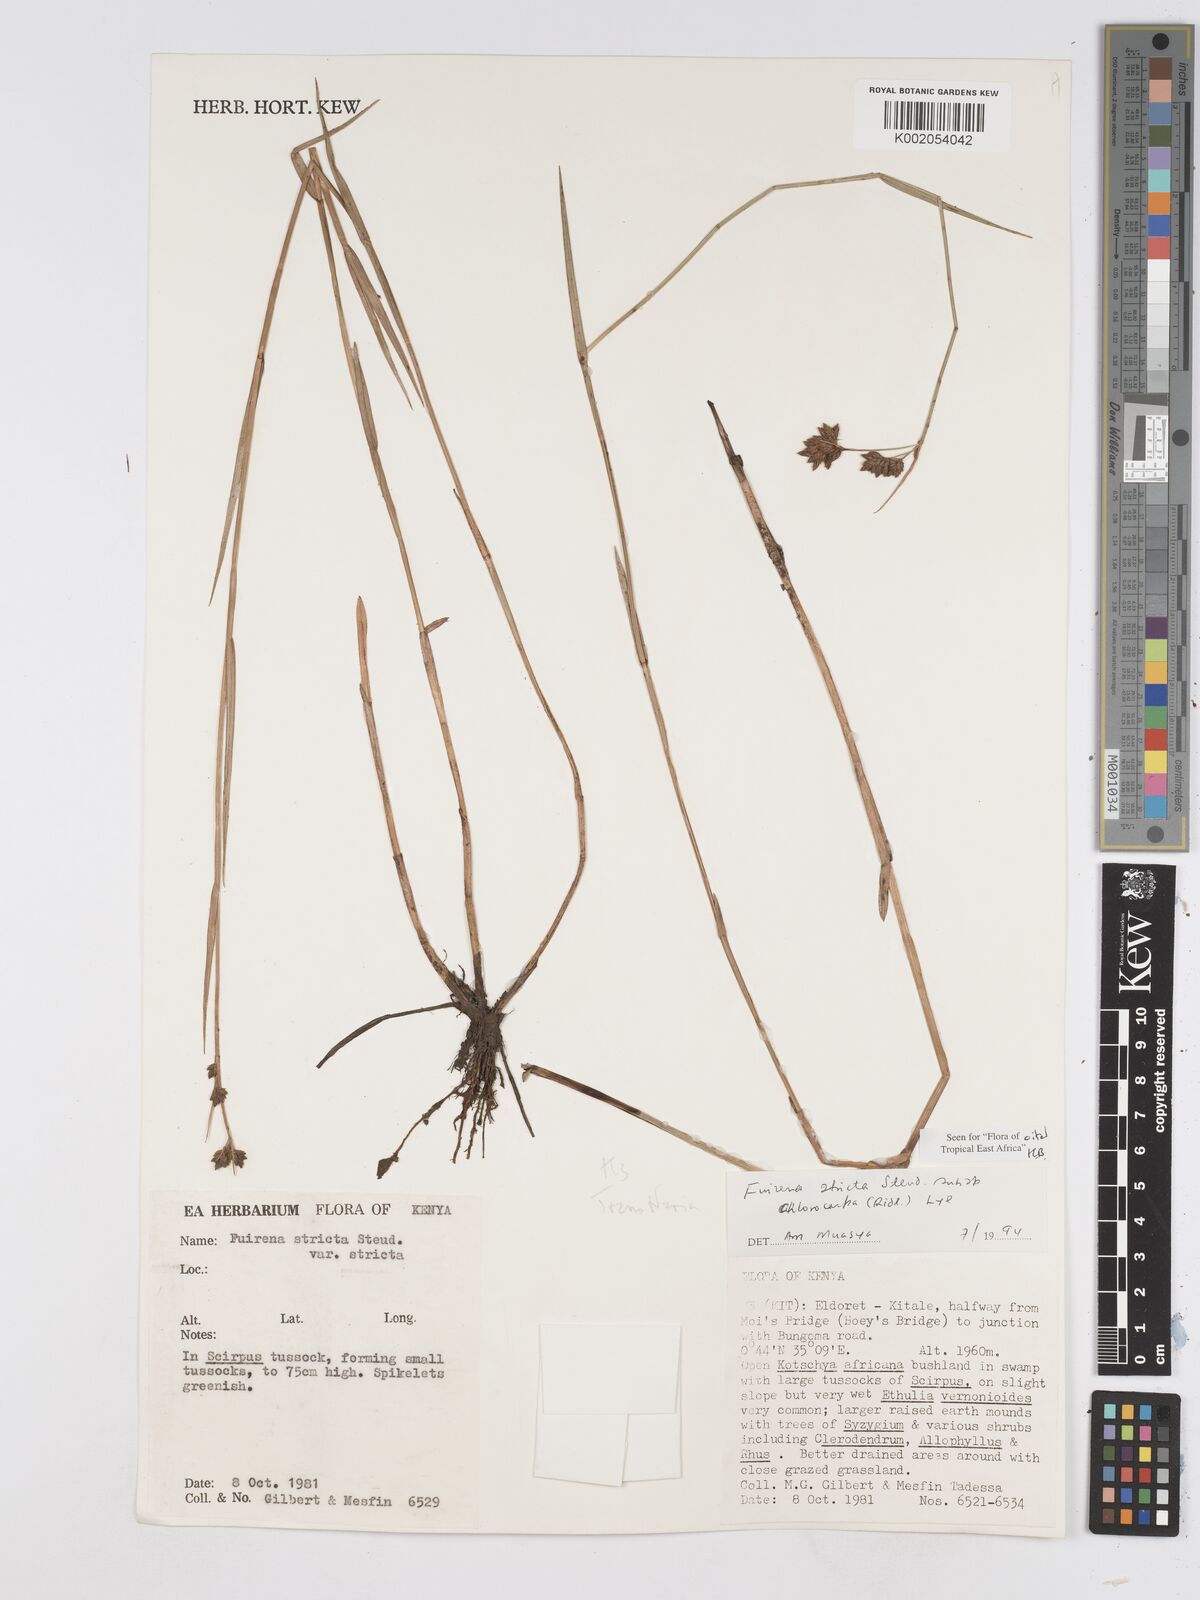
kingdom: Plantae
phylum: Tracheophyta
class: Liliopsida
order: Poales
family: Cyperaceae
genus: Fuirena
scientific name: Fuirena stricta
